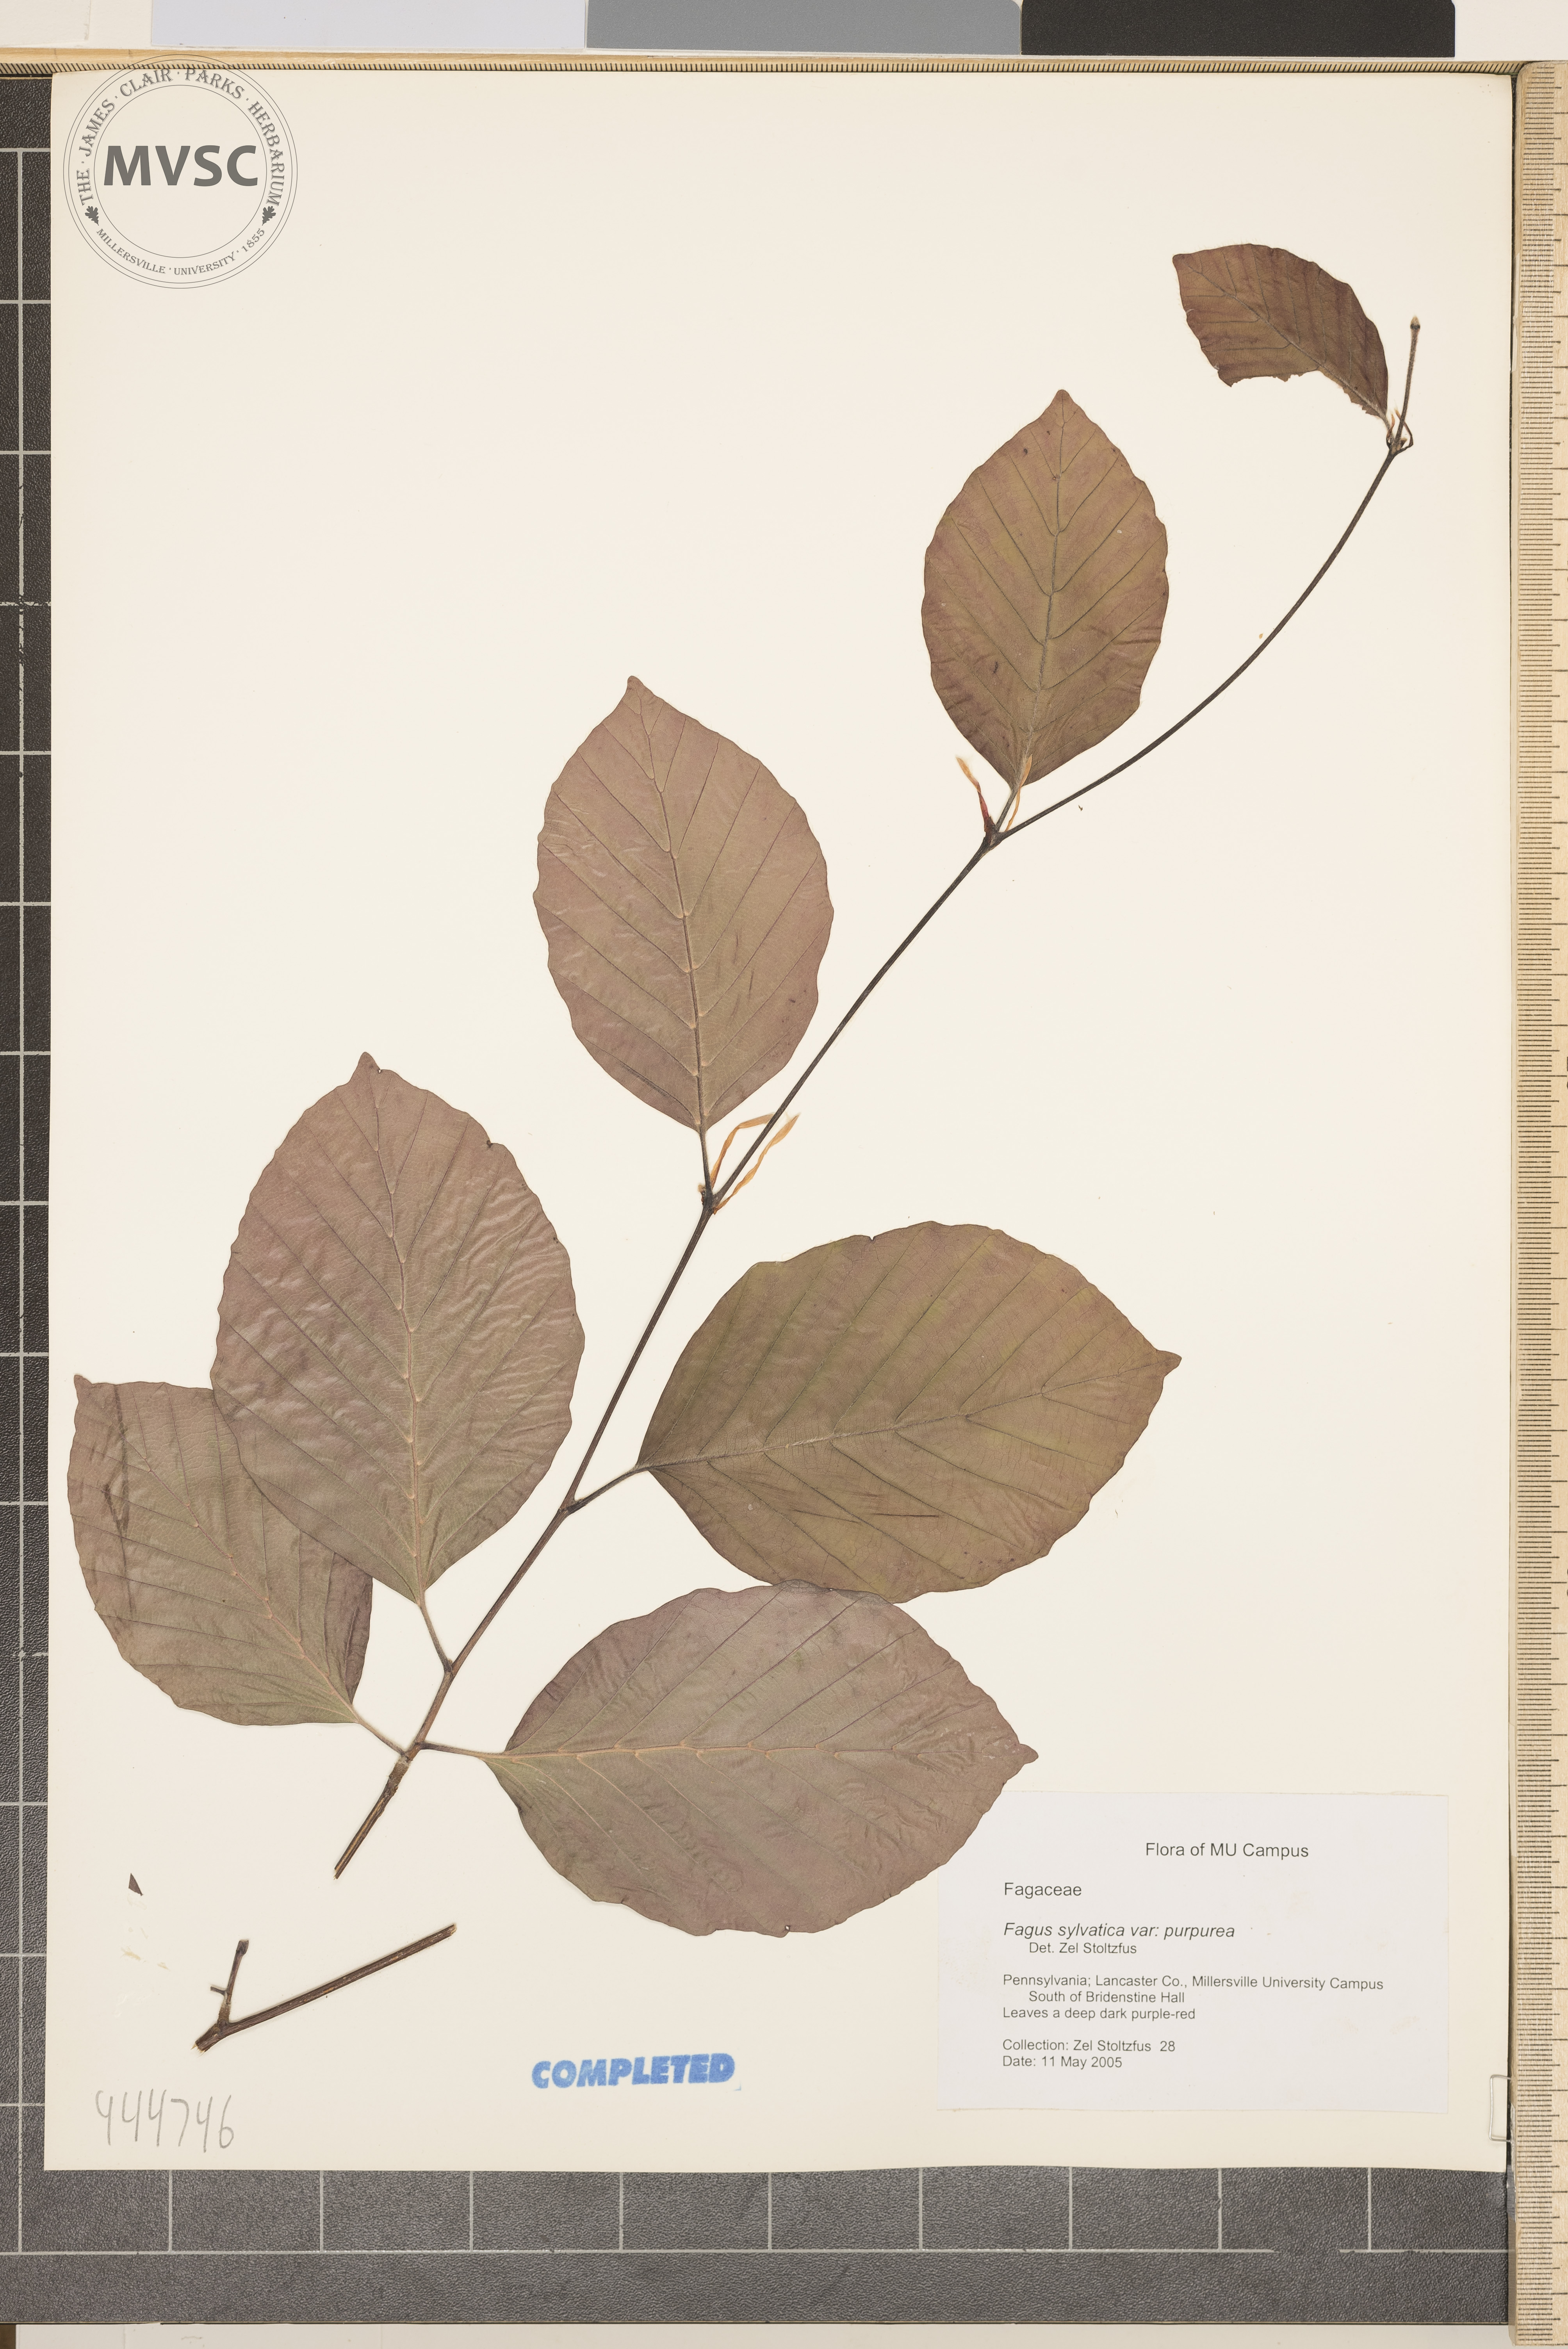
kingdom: Plantae
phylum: Tracheophyta
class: Magnoliopsida
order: Fagales
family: Fagaceae
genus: Fagus
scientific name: Fagus sylvatica
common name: Beech
